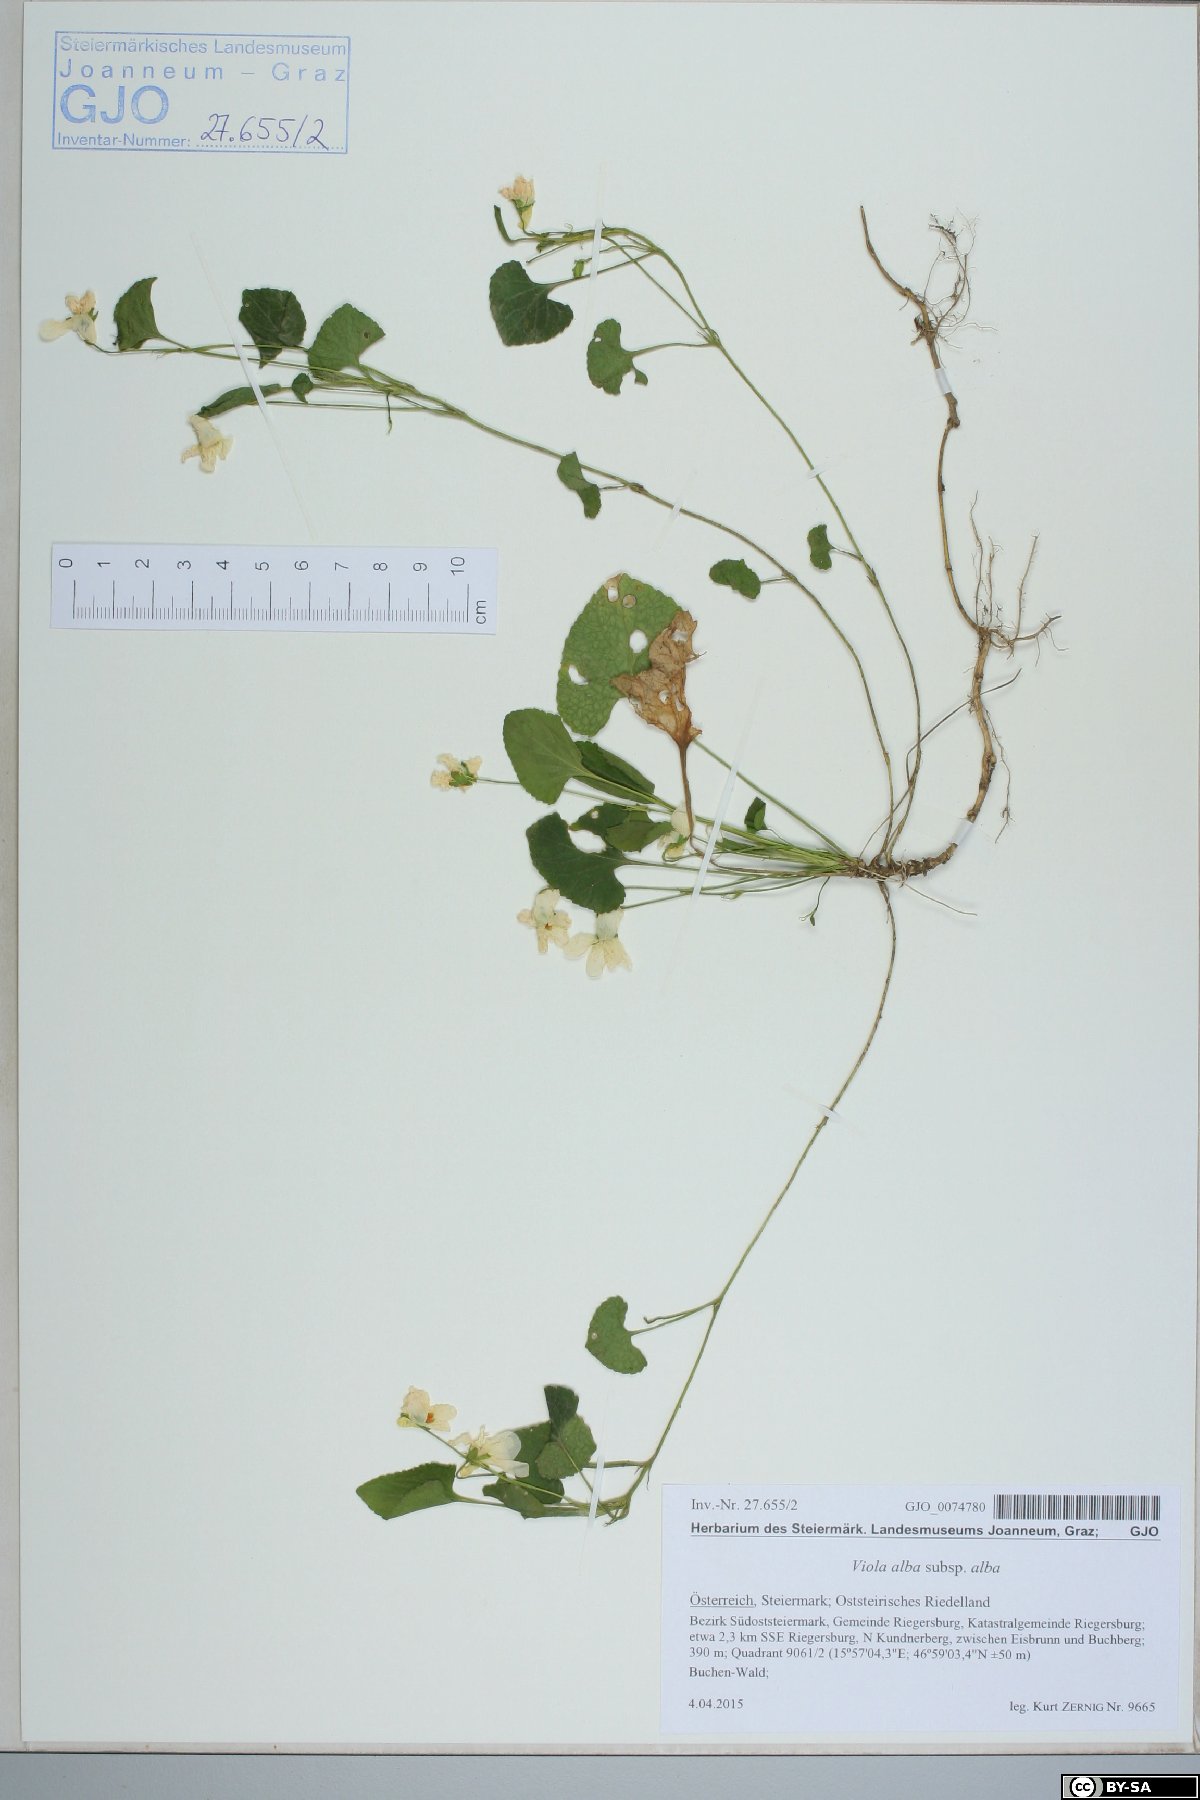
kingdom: Plantae
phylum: Tracheophyta
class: Magnoliopsida
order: Malpighiales
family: Violaceae
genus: Viola
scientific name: Viola alba
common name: White violet
